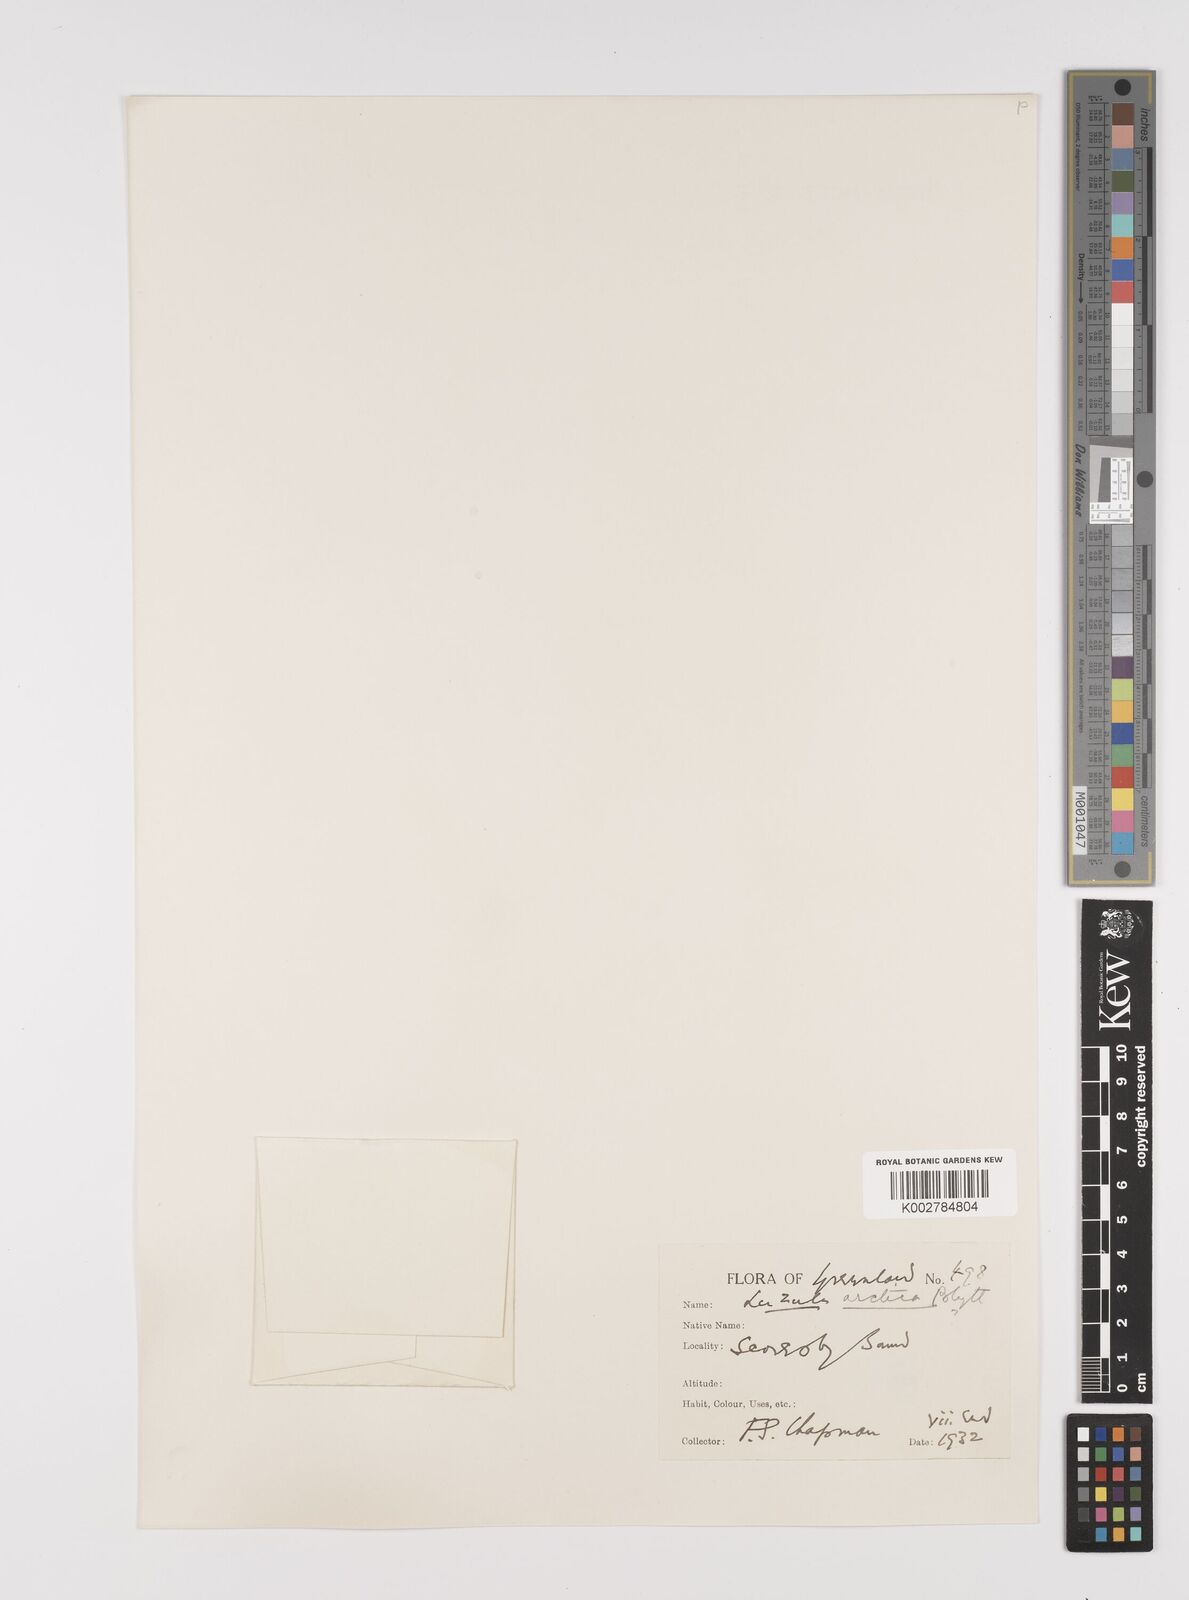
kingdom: Plantae
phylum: Tracheophyta
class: Liliopsida
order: Poales
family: Juncaceae
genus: Luzula
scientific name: Luzula confusa
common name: Northern wood rush
